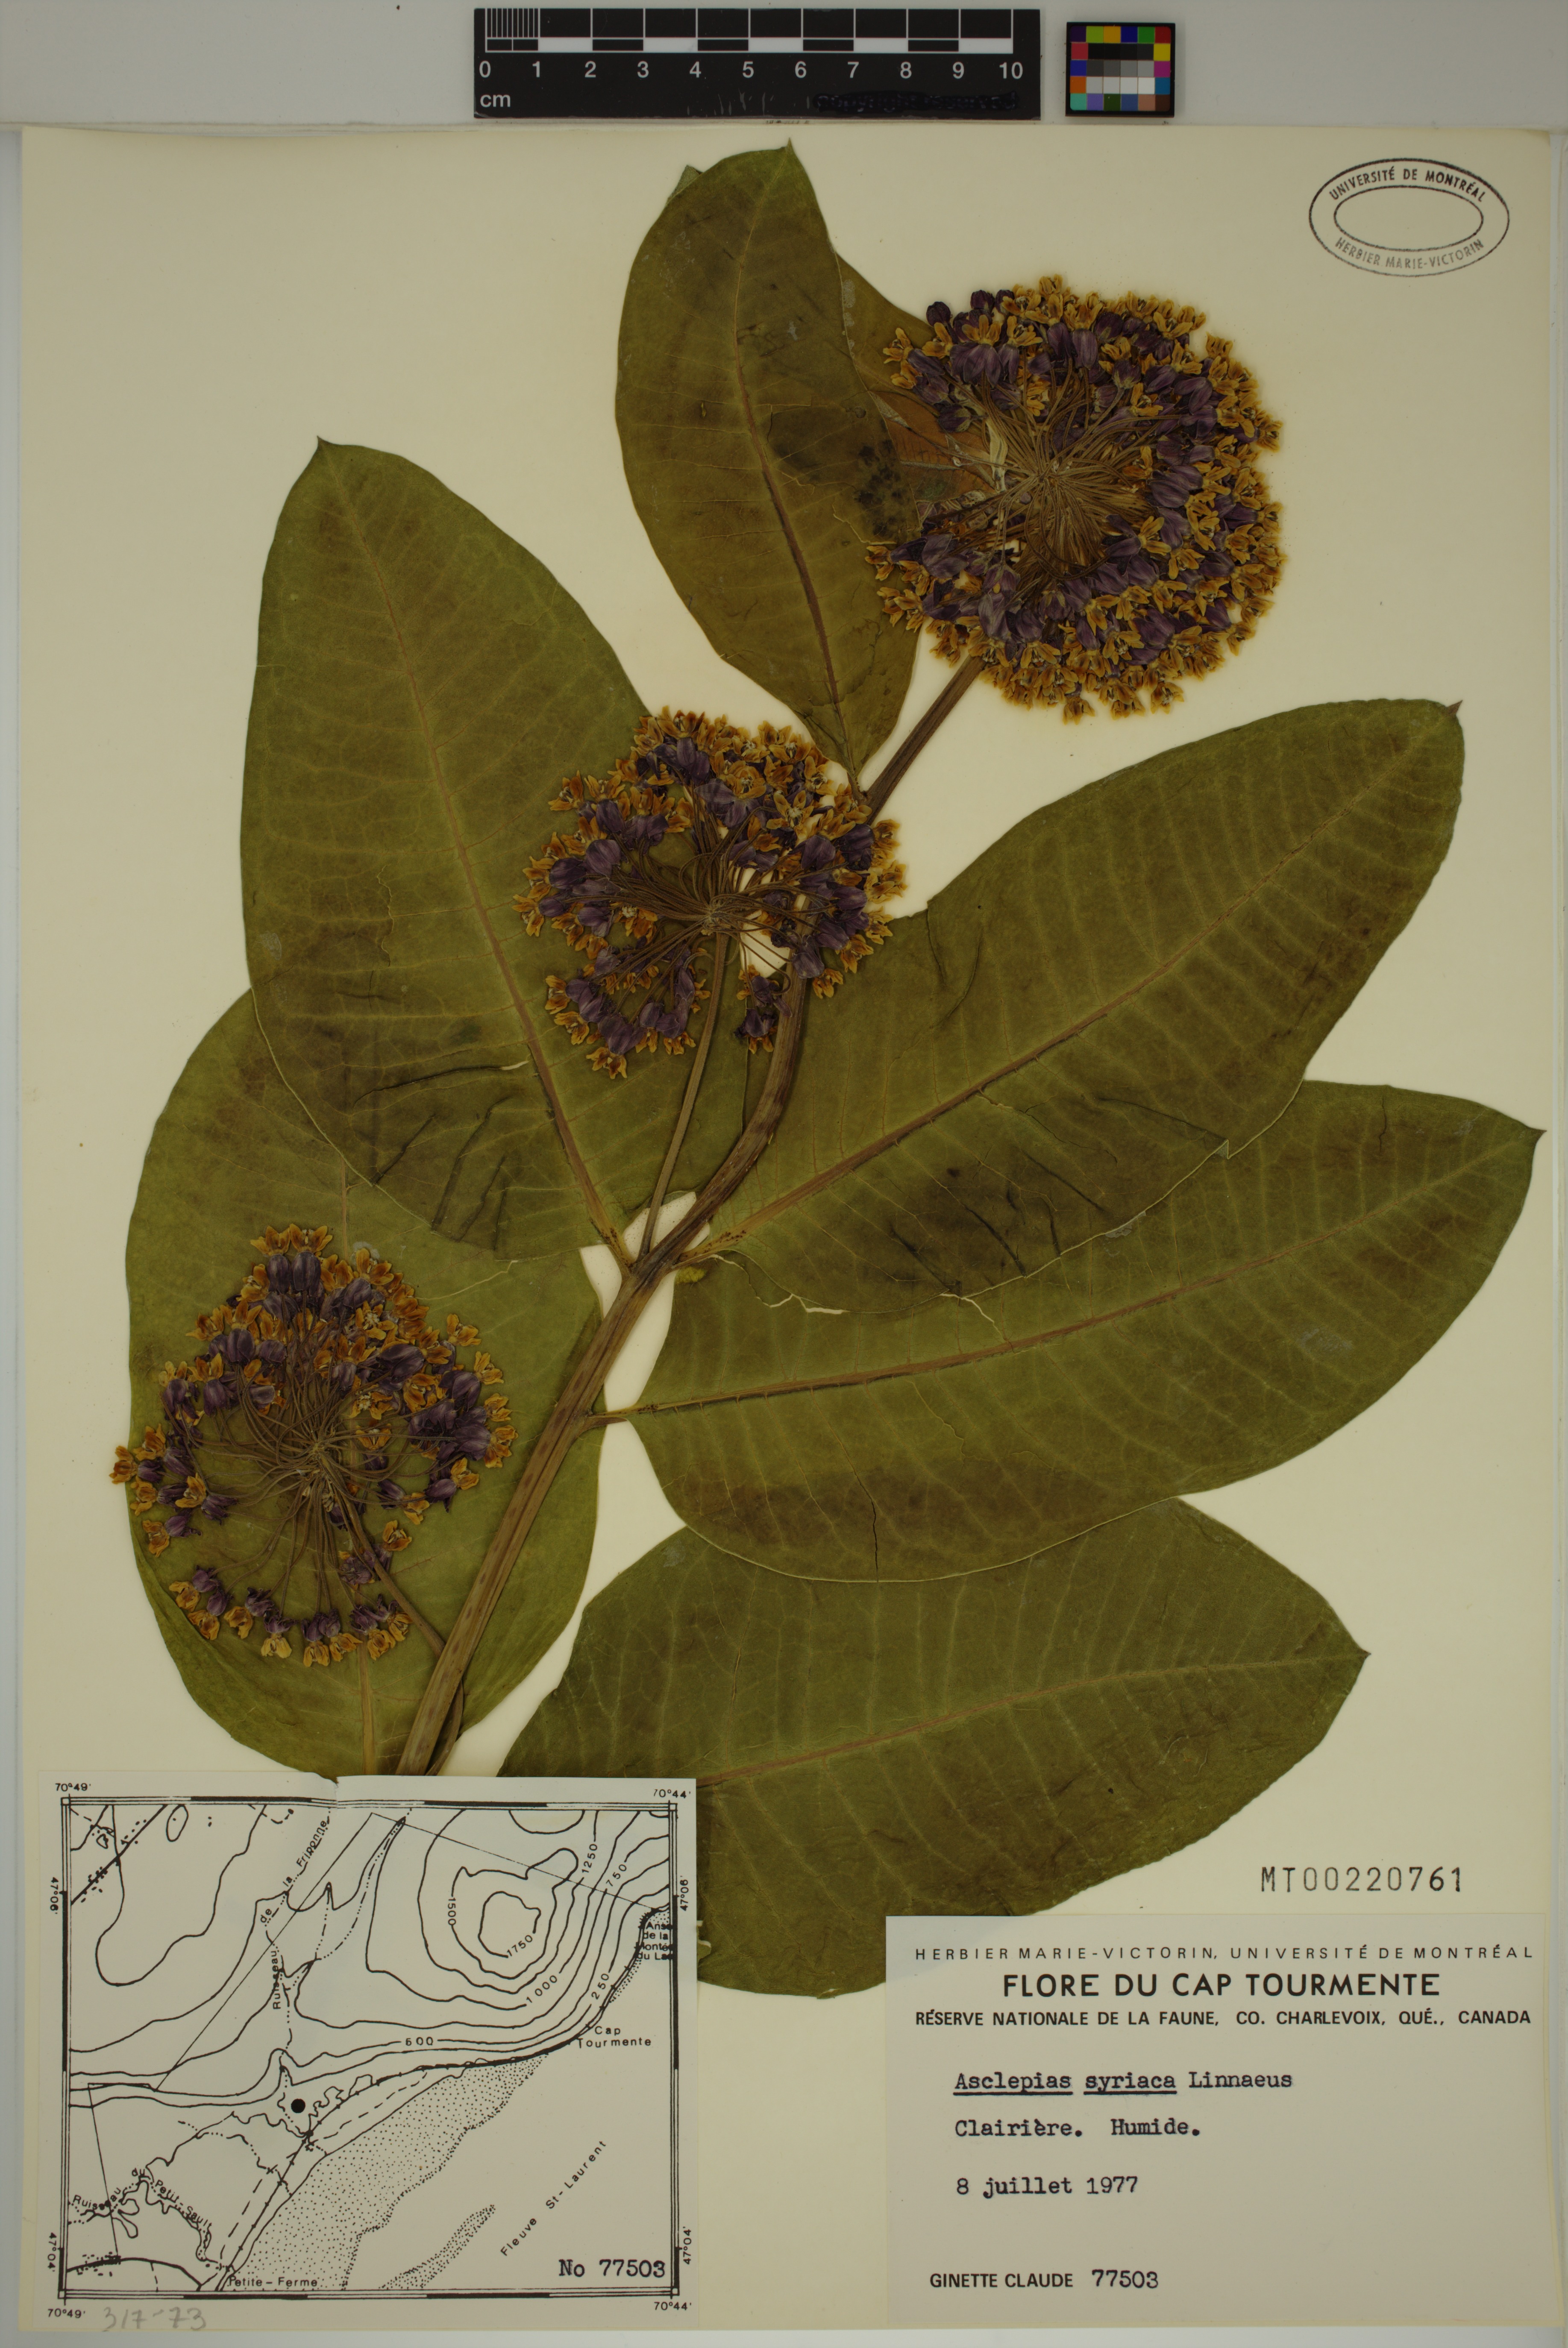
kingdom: Plantae
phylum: Tracheophyta
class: Magnoliopsida
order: Gentianales
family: Apocynaceae
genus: Asclepias
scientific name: Asclepias syriaca
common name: Common milkweed
